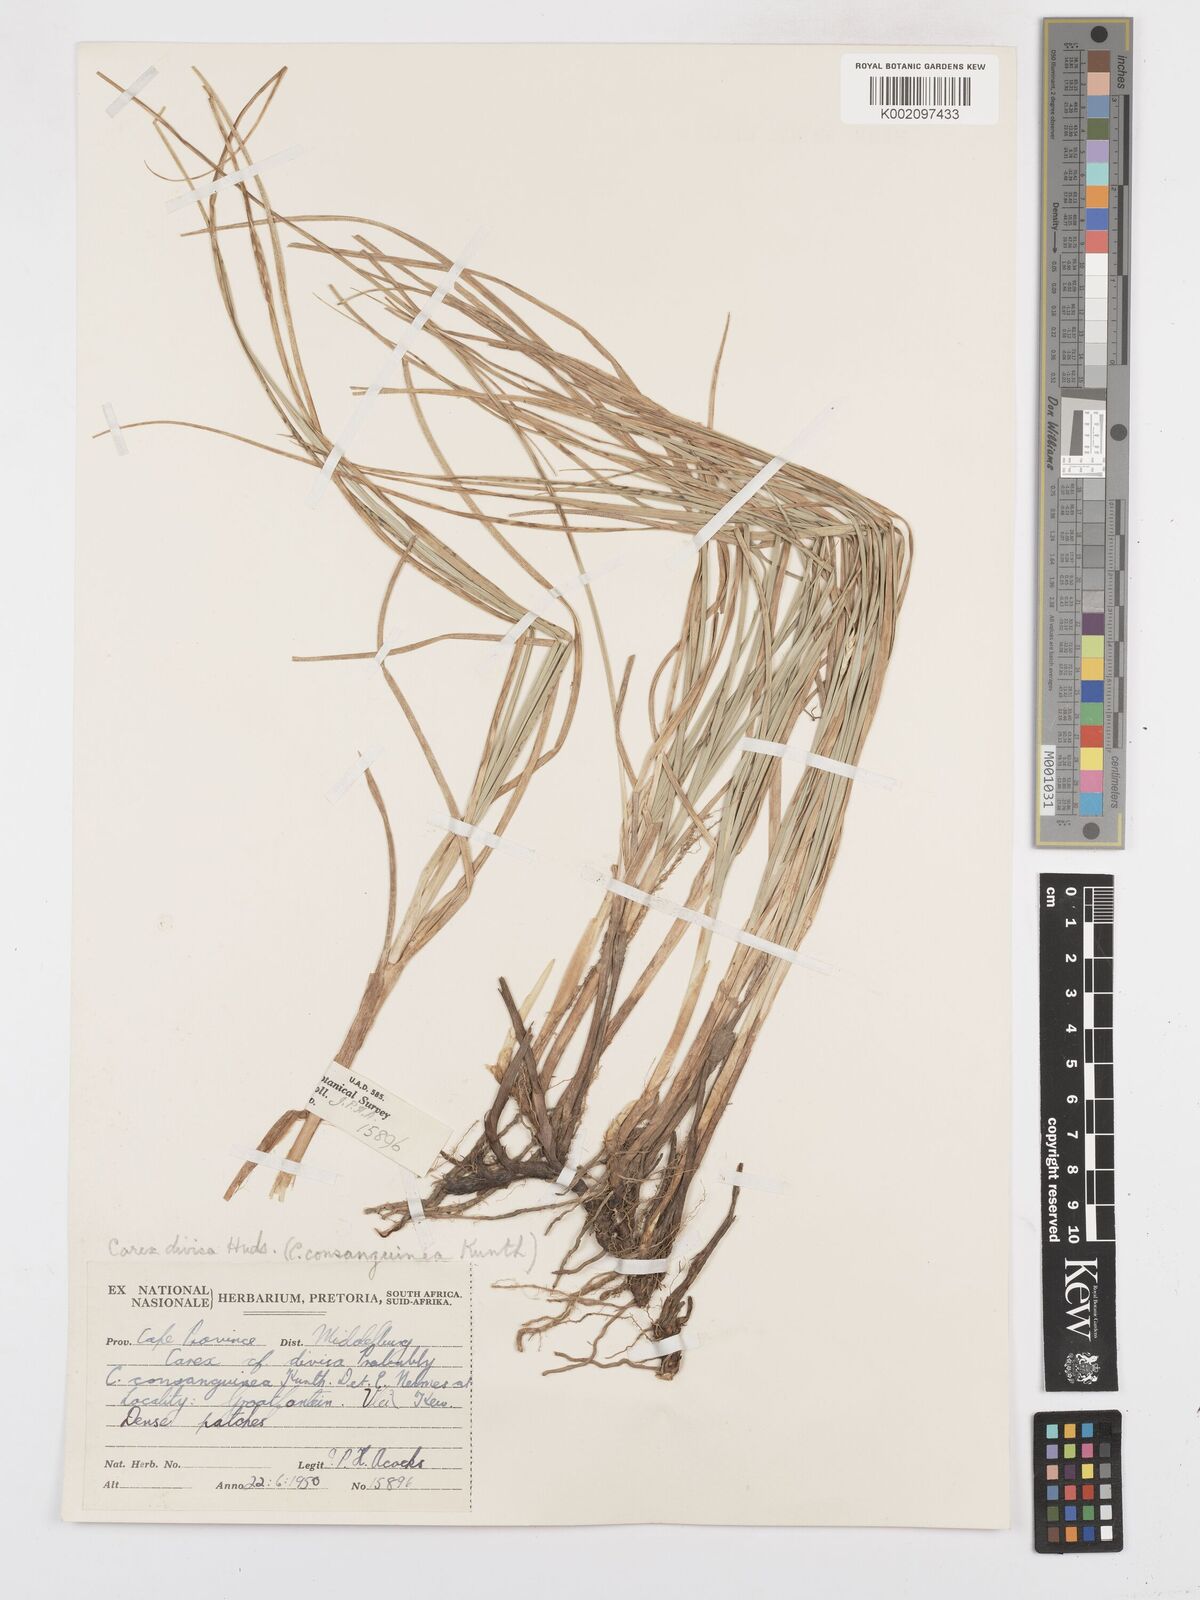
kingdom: Plantae
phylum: Tracheophyta
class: Liliopsida
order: Poales
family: Cyperaceae
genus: Carex
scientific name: Carex divisa
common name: Divided sedge
